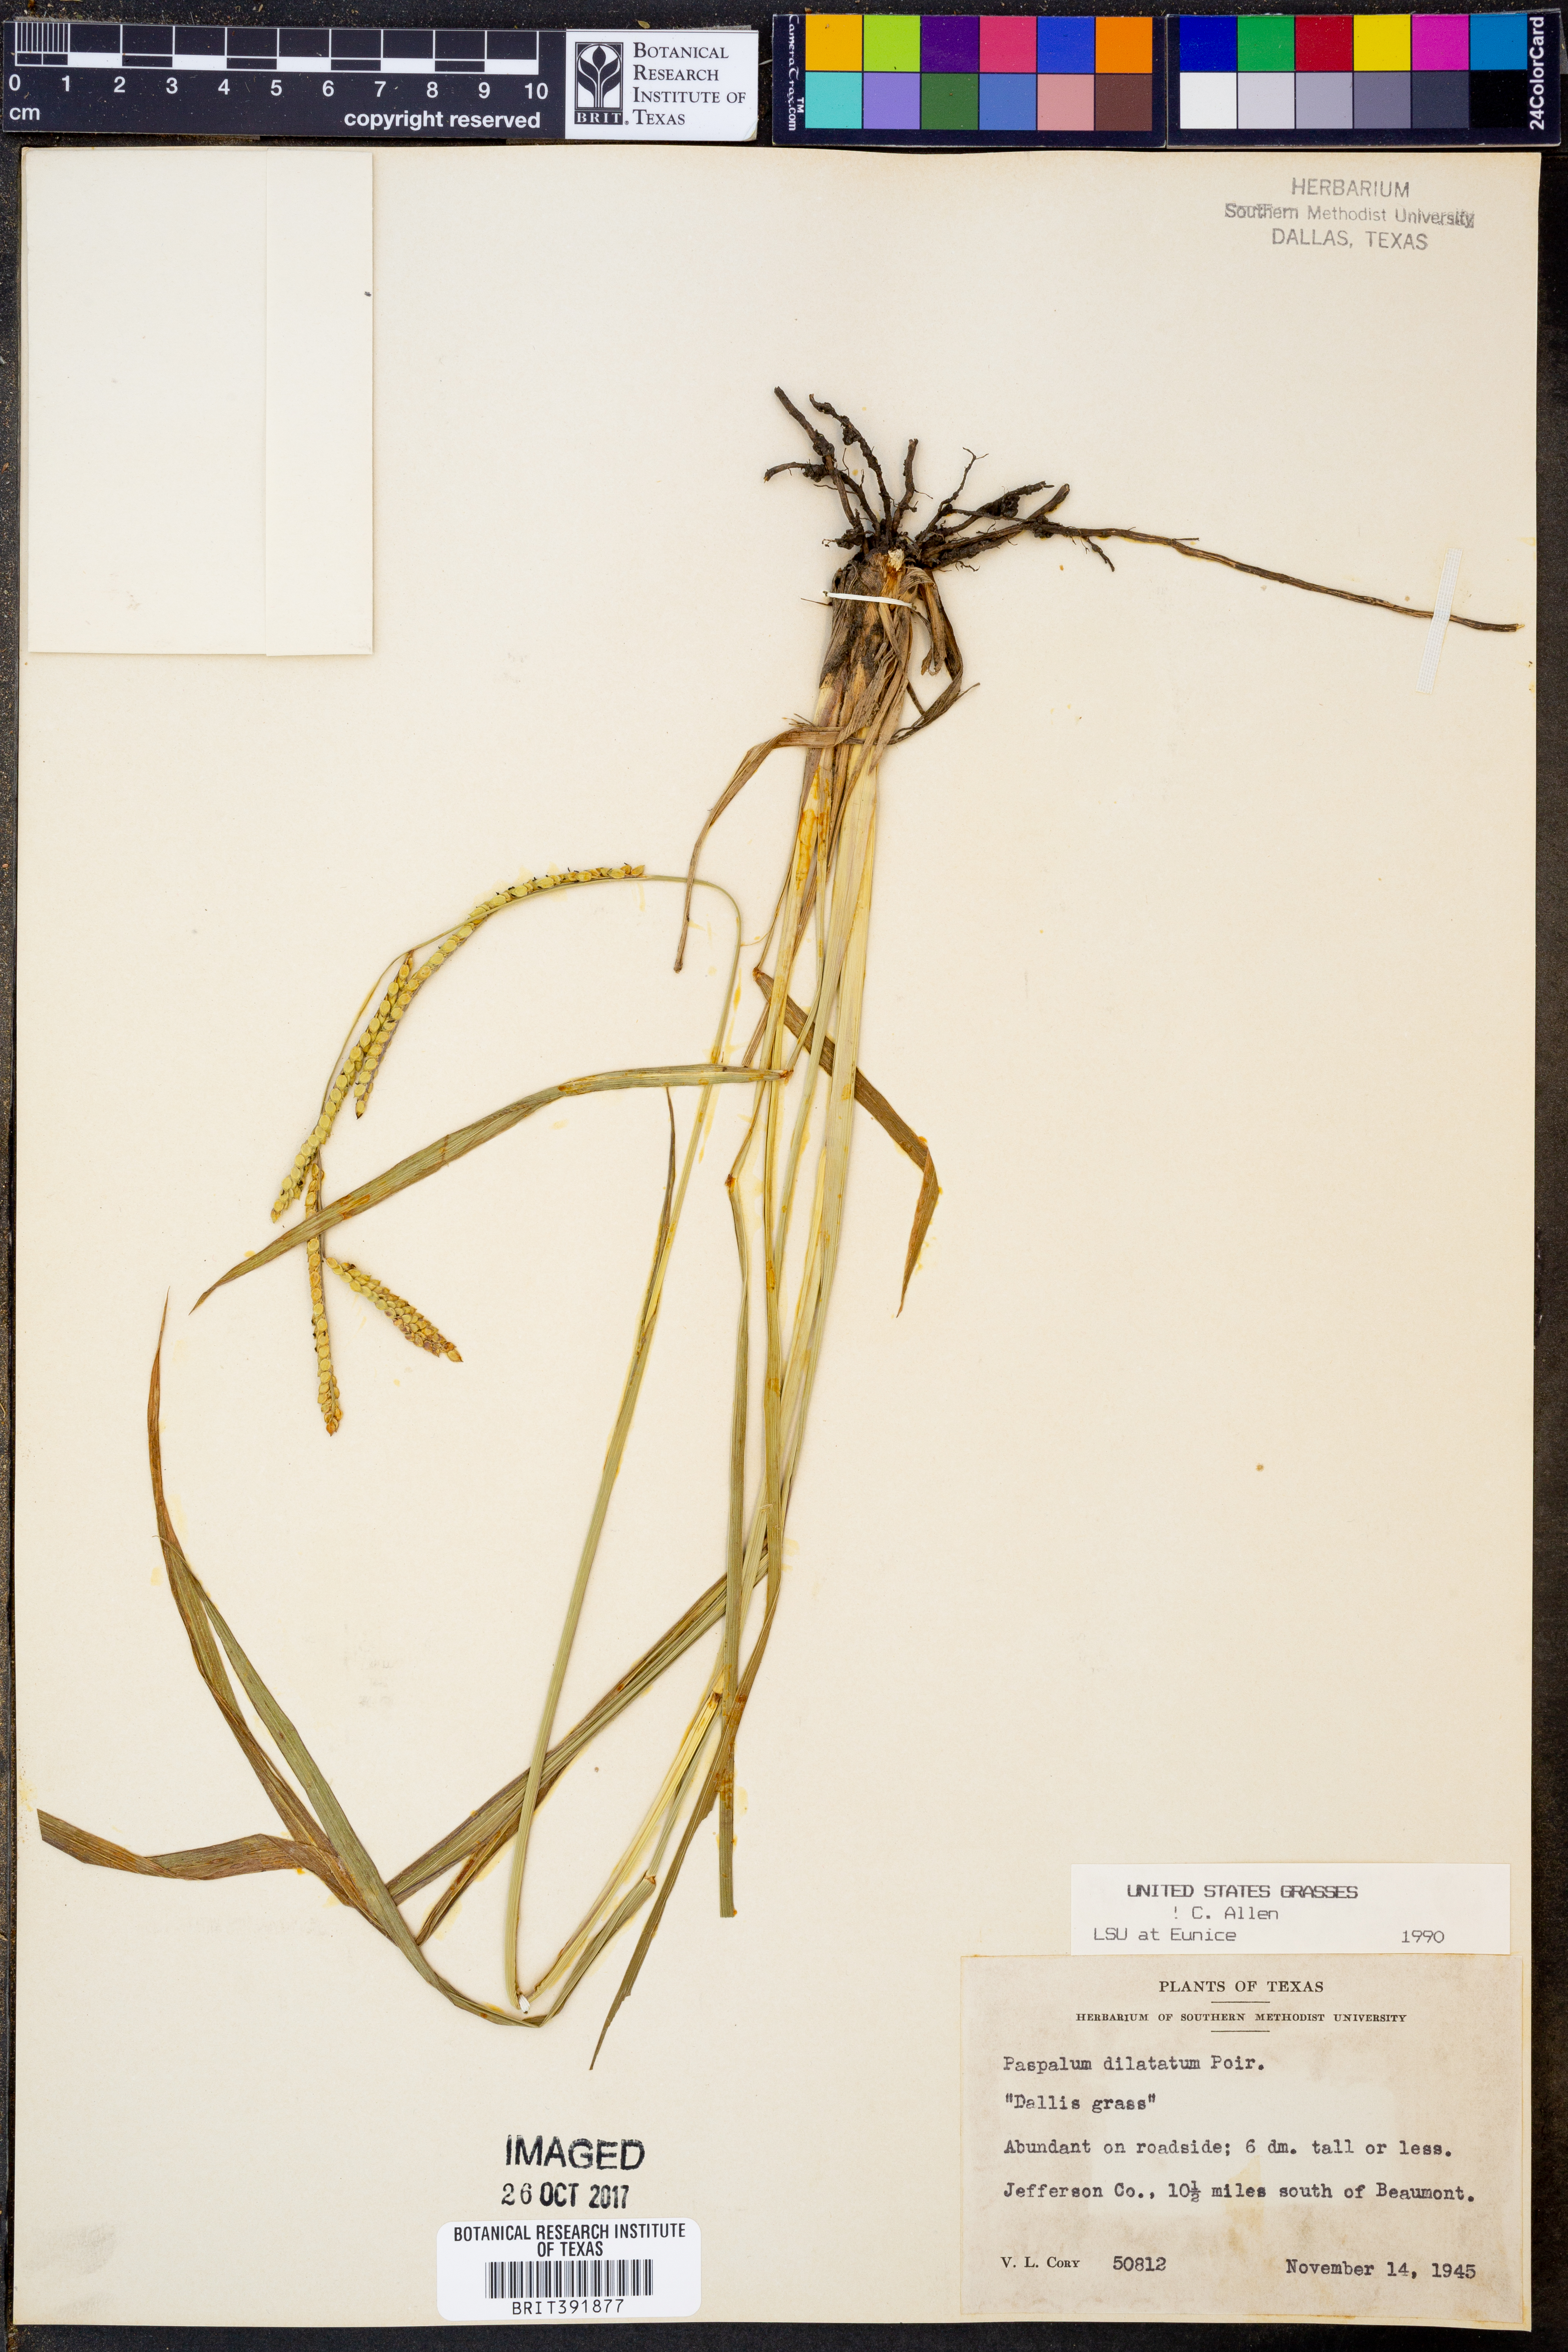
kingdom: Plantae
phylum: Tracheophyta
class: Liliopsida
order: Poales
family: Poaceae
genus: Paspalum
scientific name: Paspalum dilatatum
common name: Dallisgrass
